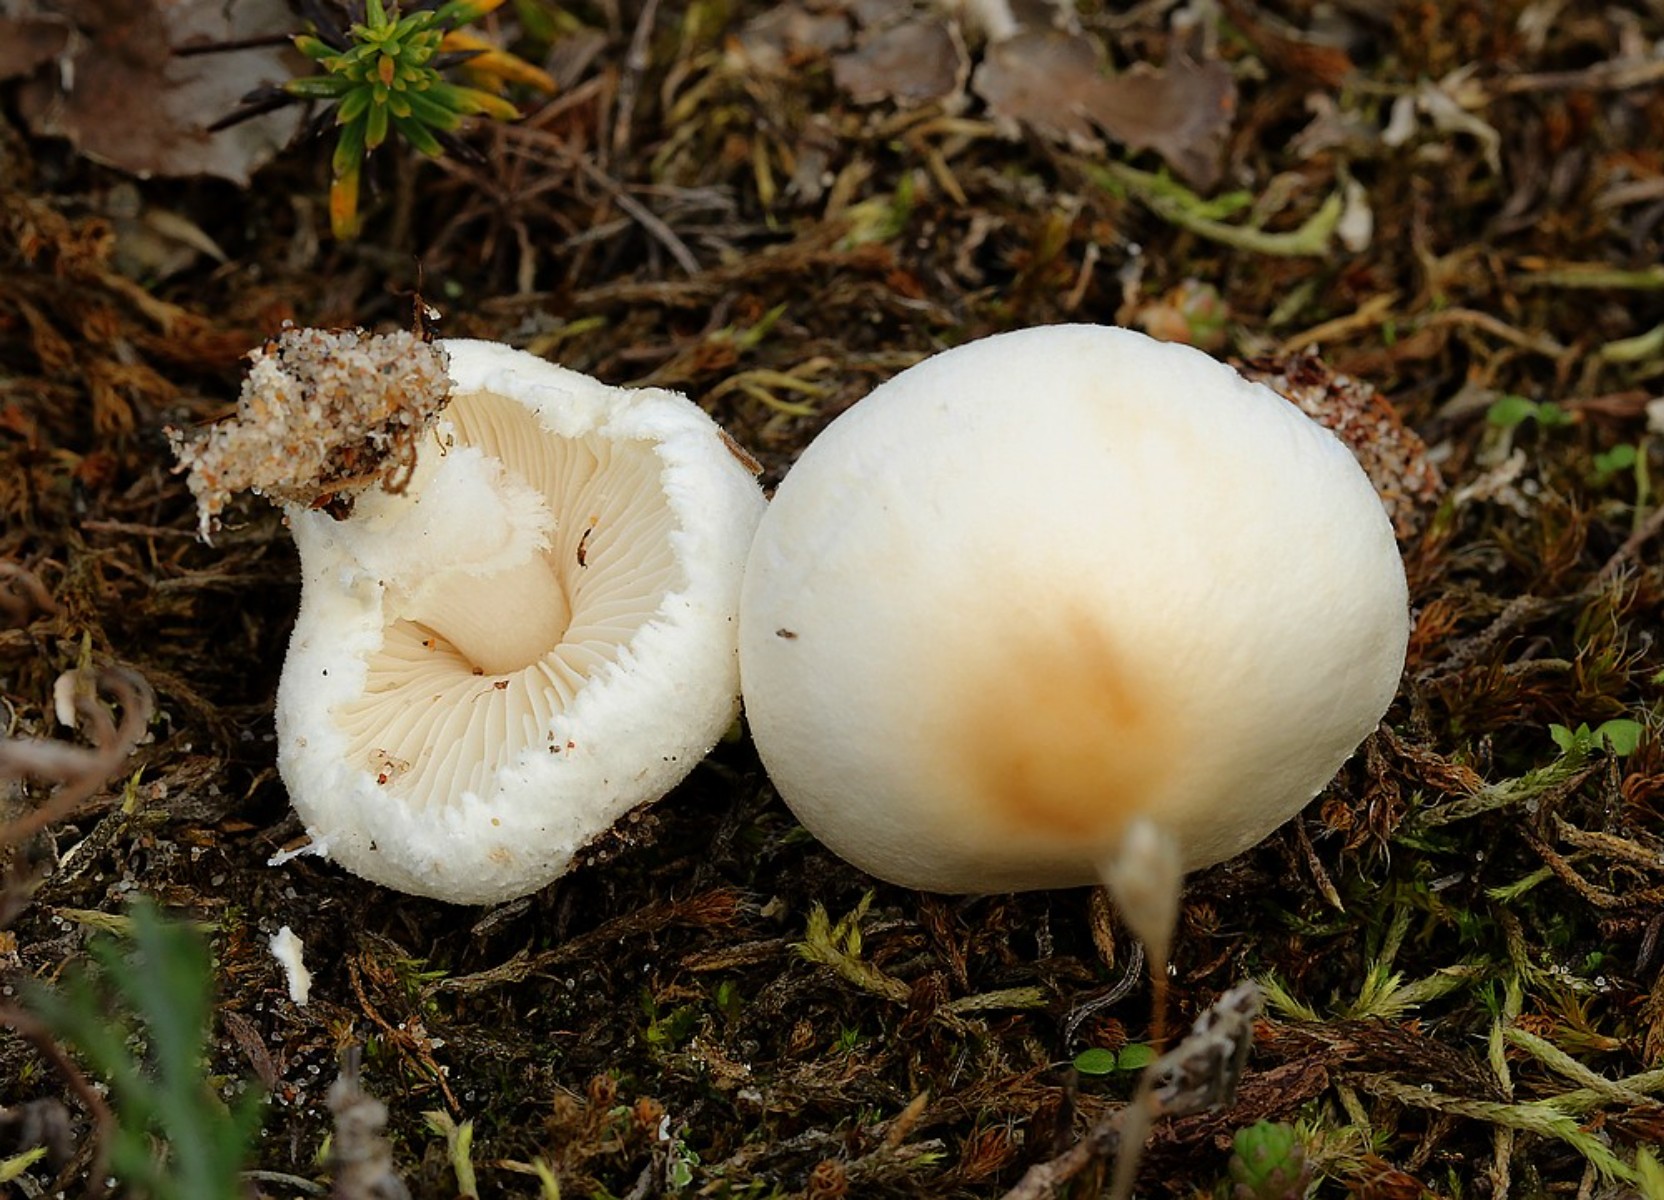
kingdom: Fungi
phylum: Basidiomycota
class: Agaricomycetes
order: Agaricales
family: Agaricaceae
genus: Lepiota
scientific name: Lepiota erminea
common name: hvid parasolhat
